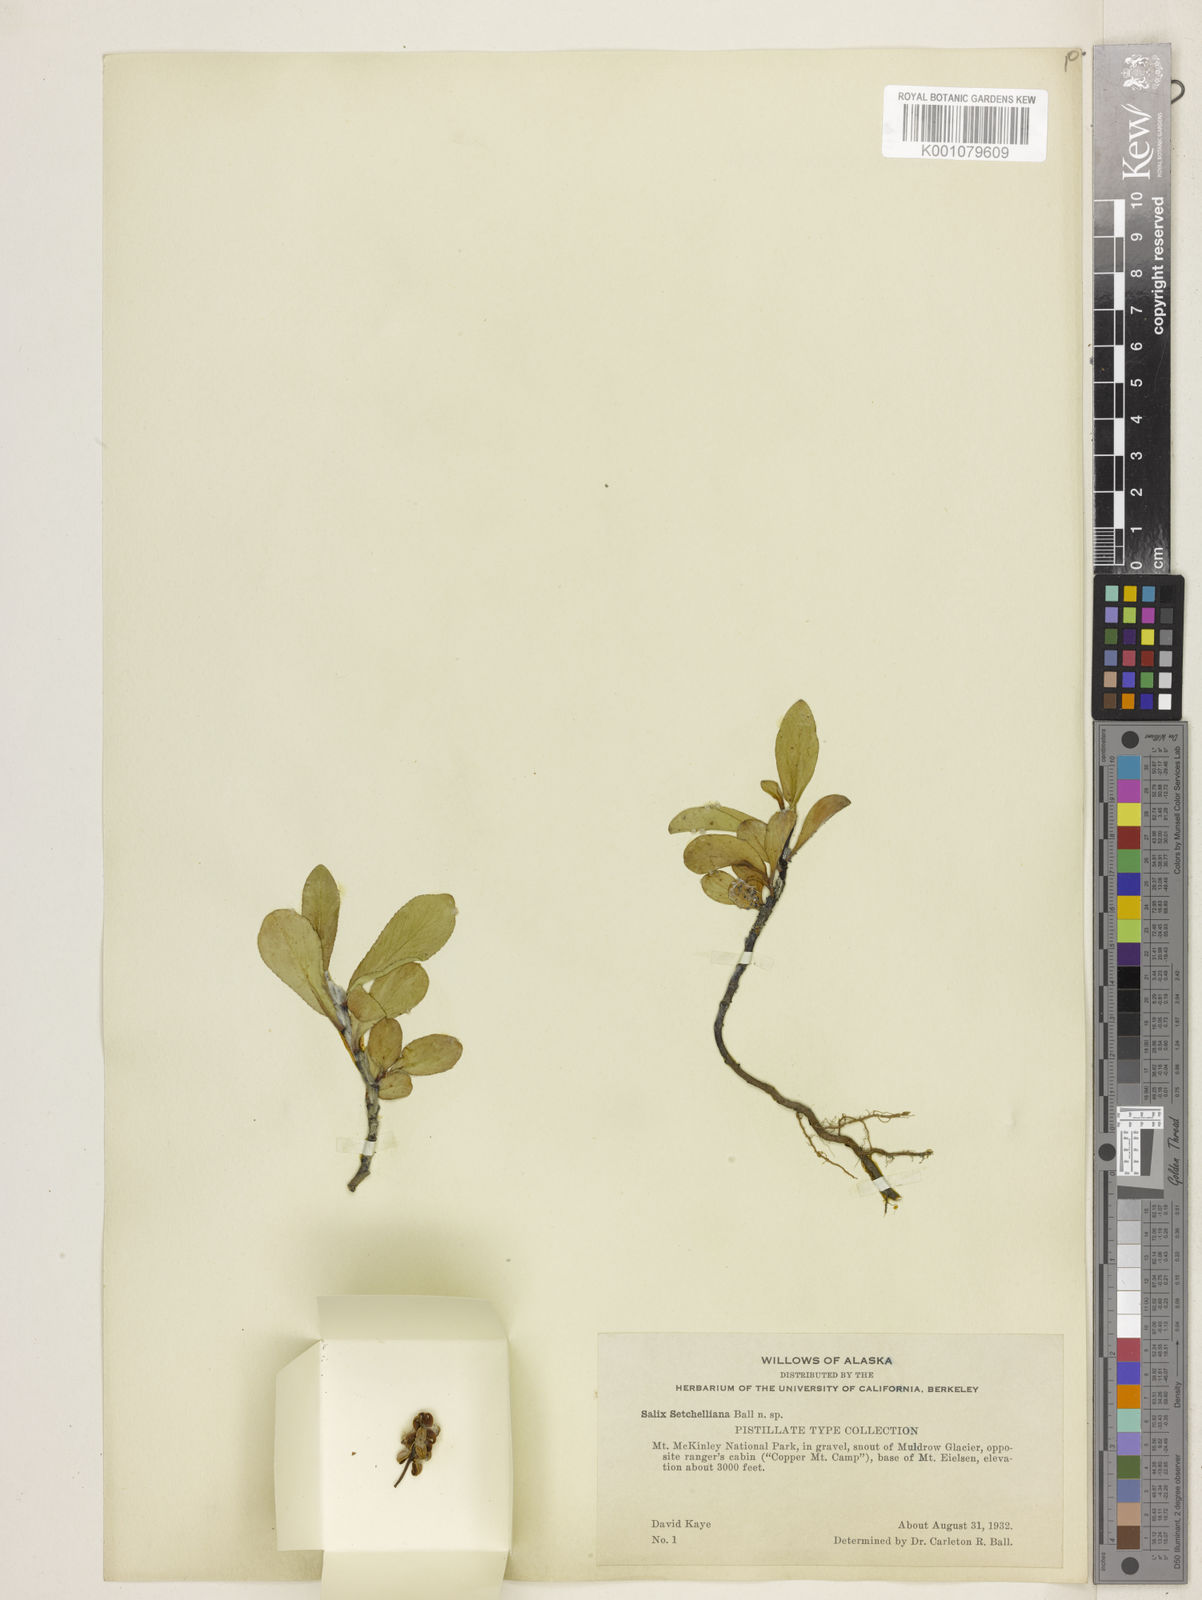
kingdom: Plantae
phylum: Tracheophyta
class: Magnoliopsida
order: Malpighiales
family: Salicaceae
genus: Salix
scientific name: Salix setchelliana
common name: Setchell's willow
